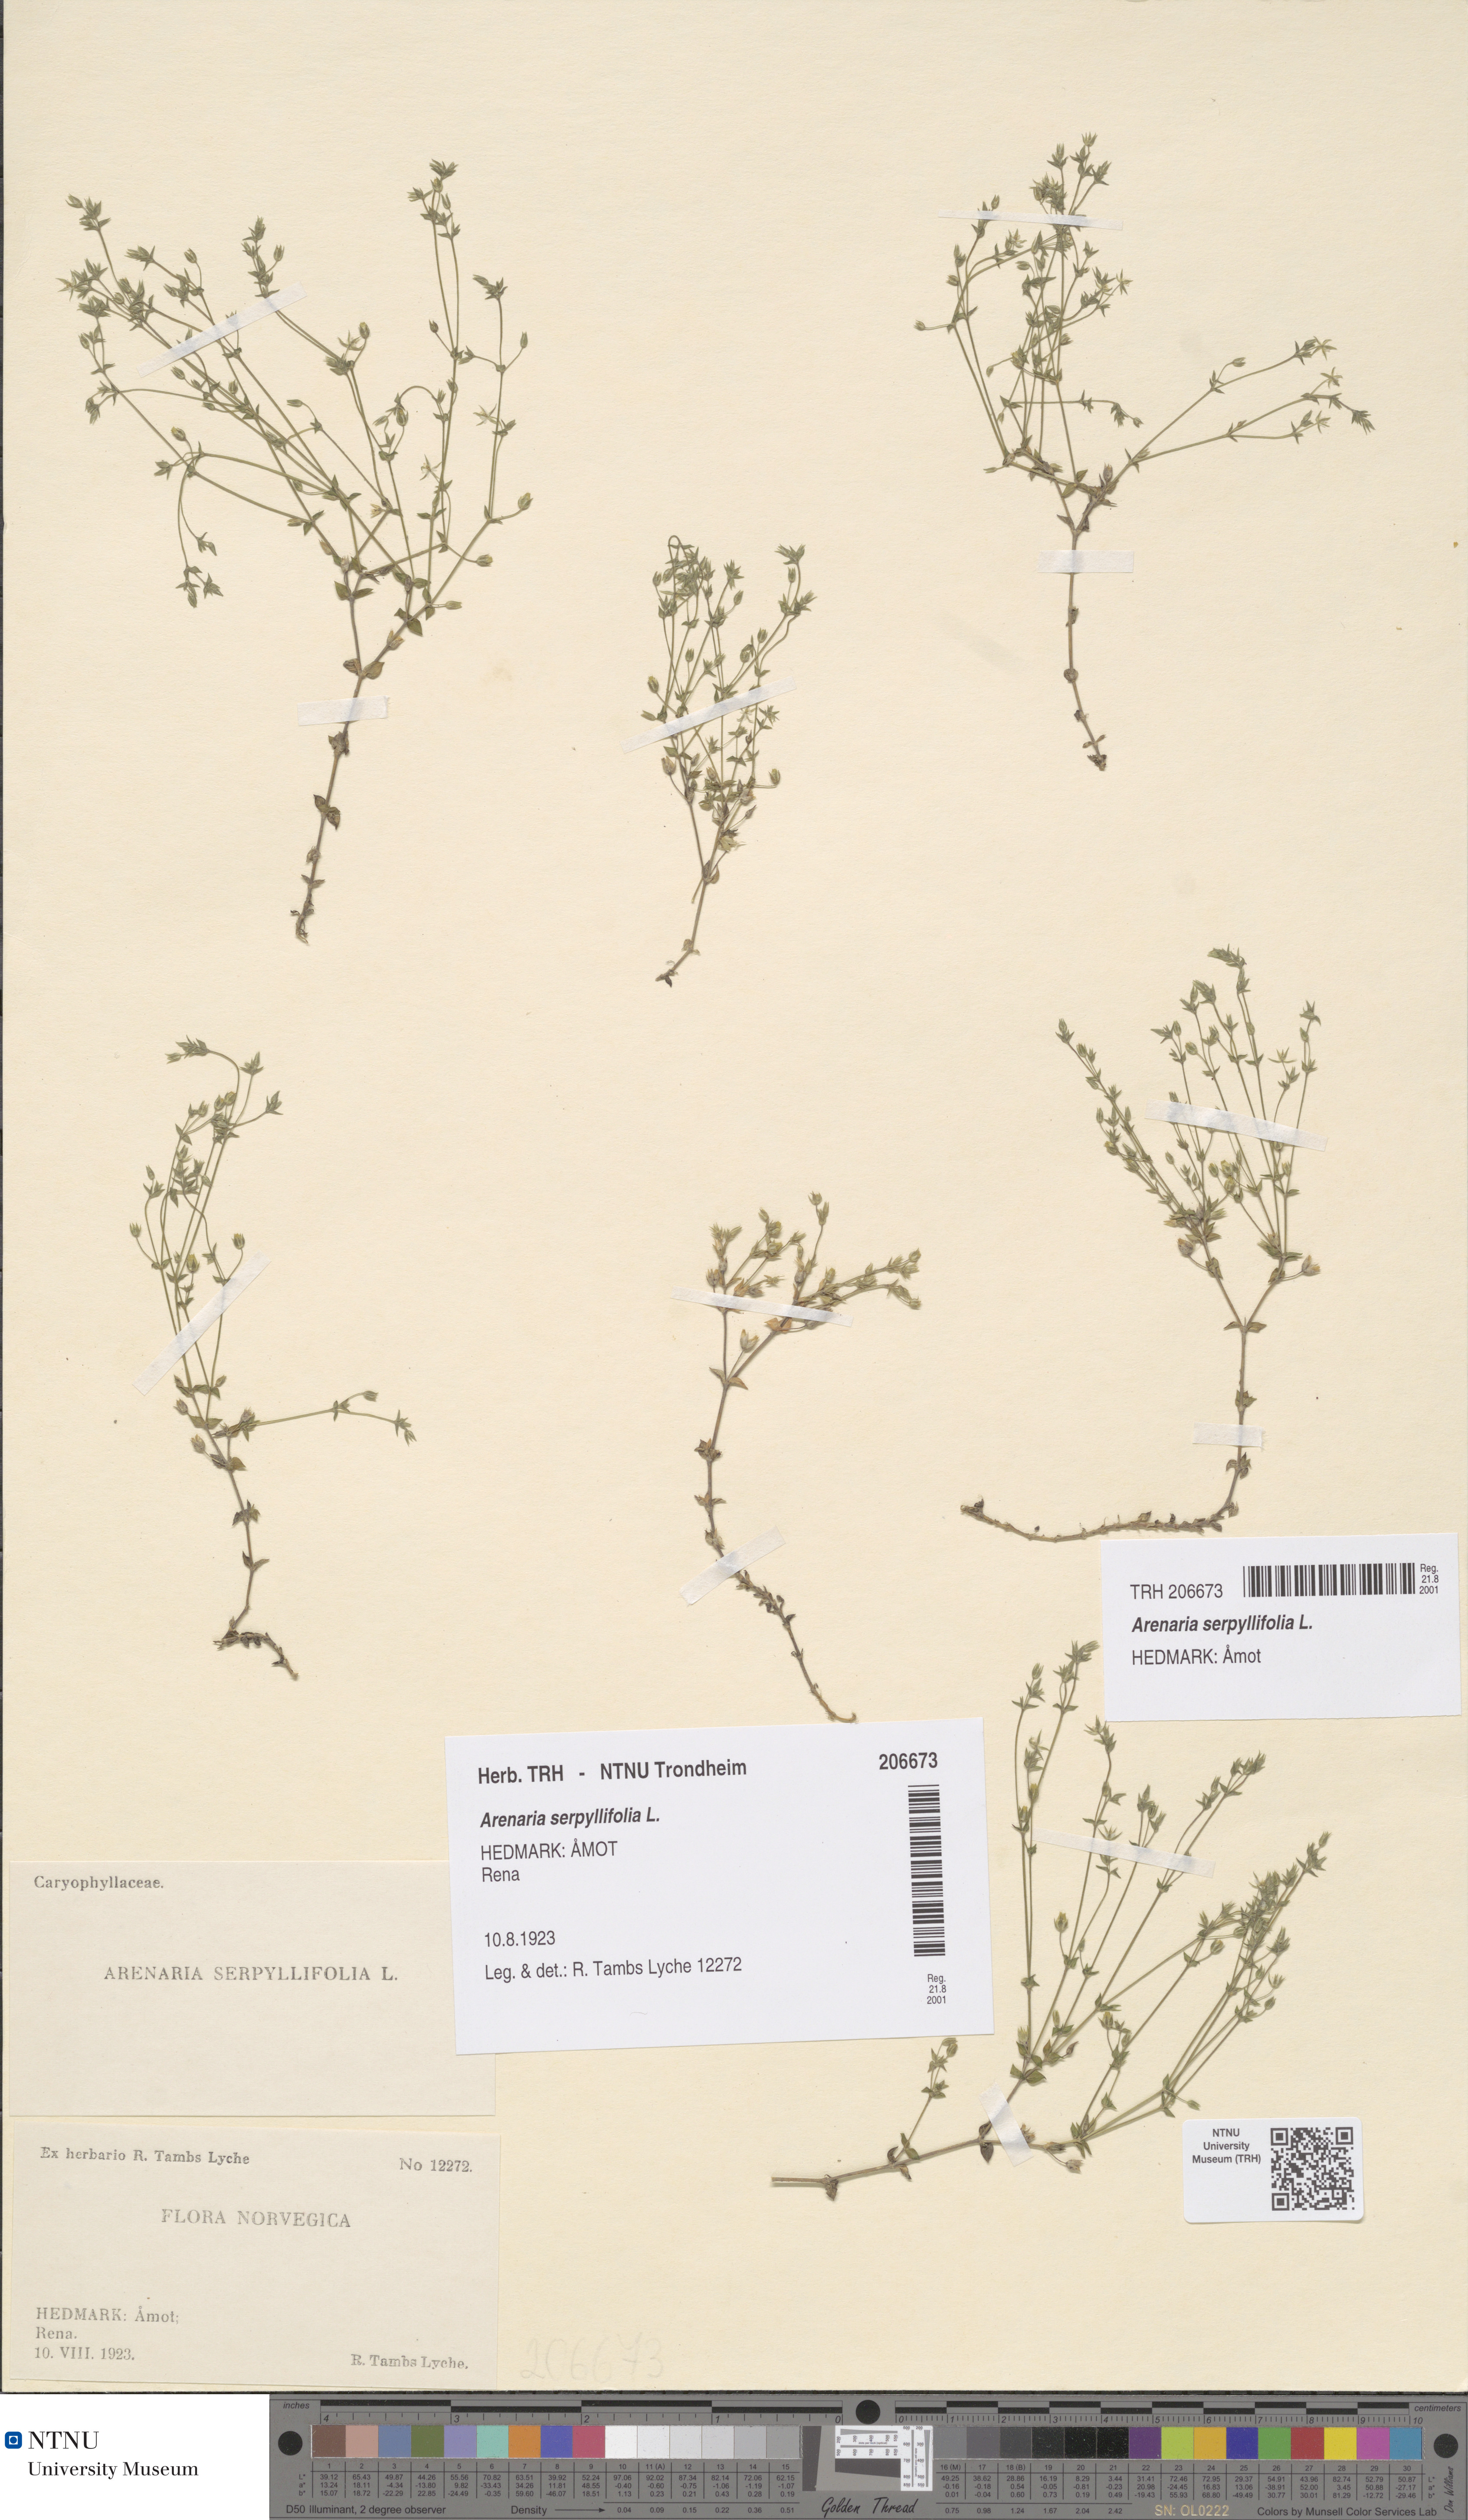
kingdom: Plantae
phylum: Tracheophyta
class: Magnoliopsida
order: Caryophyllales
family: Caryophyllaceae
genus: Arenaria
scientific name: Arenaria serpyllifolia
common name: Thyme-leaved sandwort
